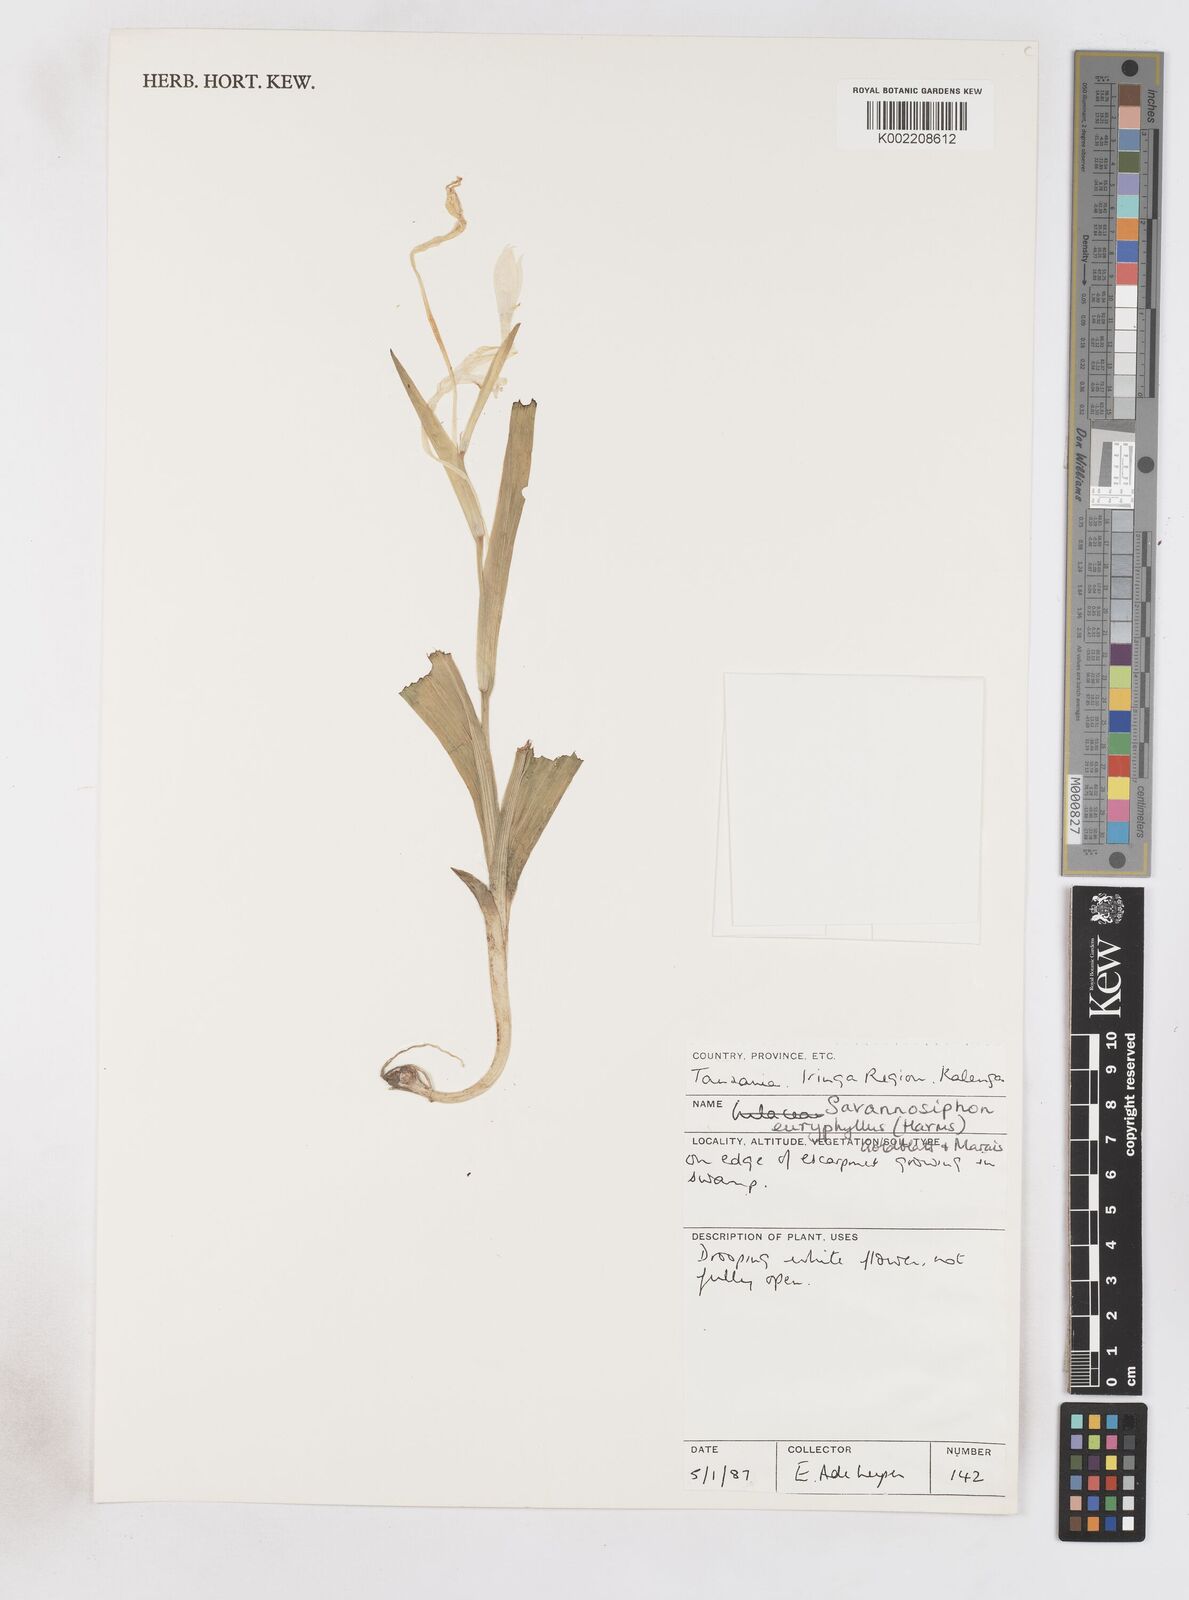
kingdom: Plantae
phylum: Tracheophyta
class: Liliopsida
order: Asparagales
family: Iridaceae
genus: Savannosiphon
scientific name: Savannosiphon euryphylla
